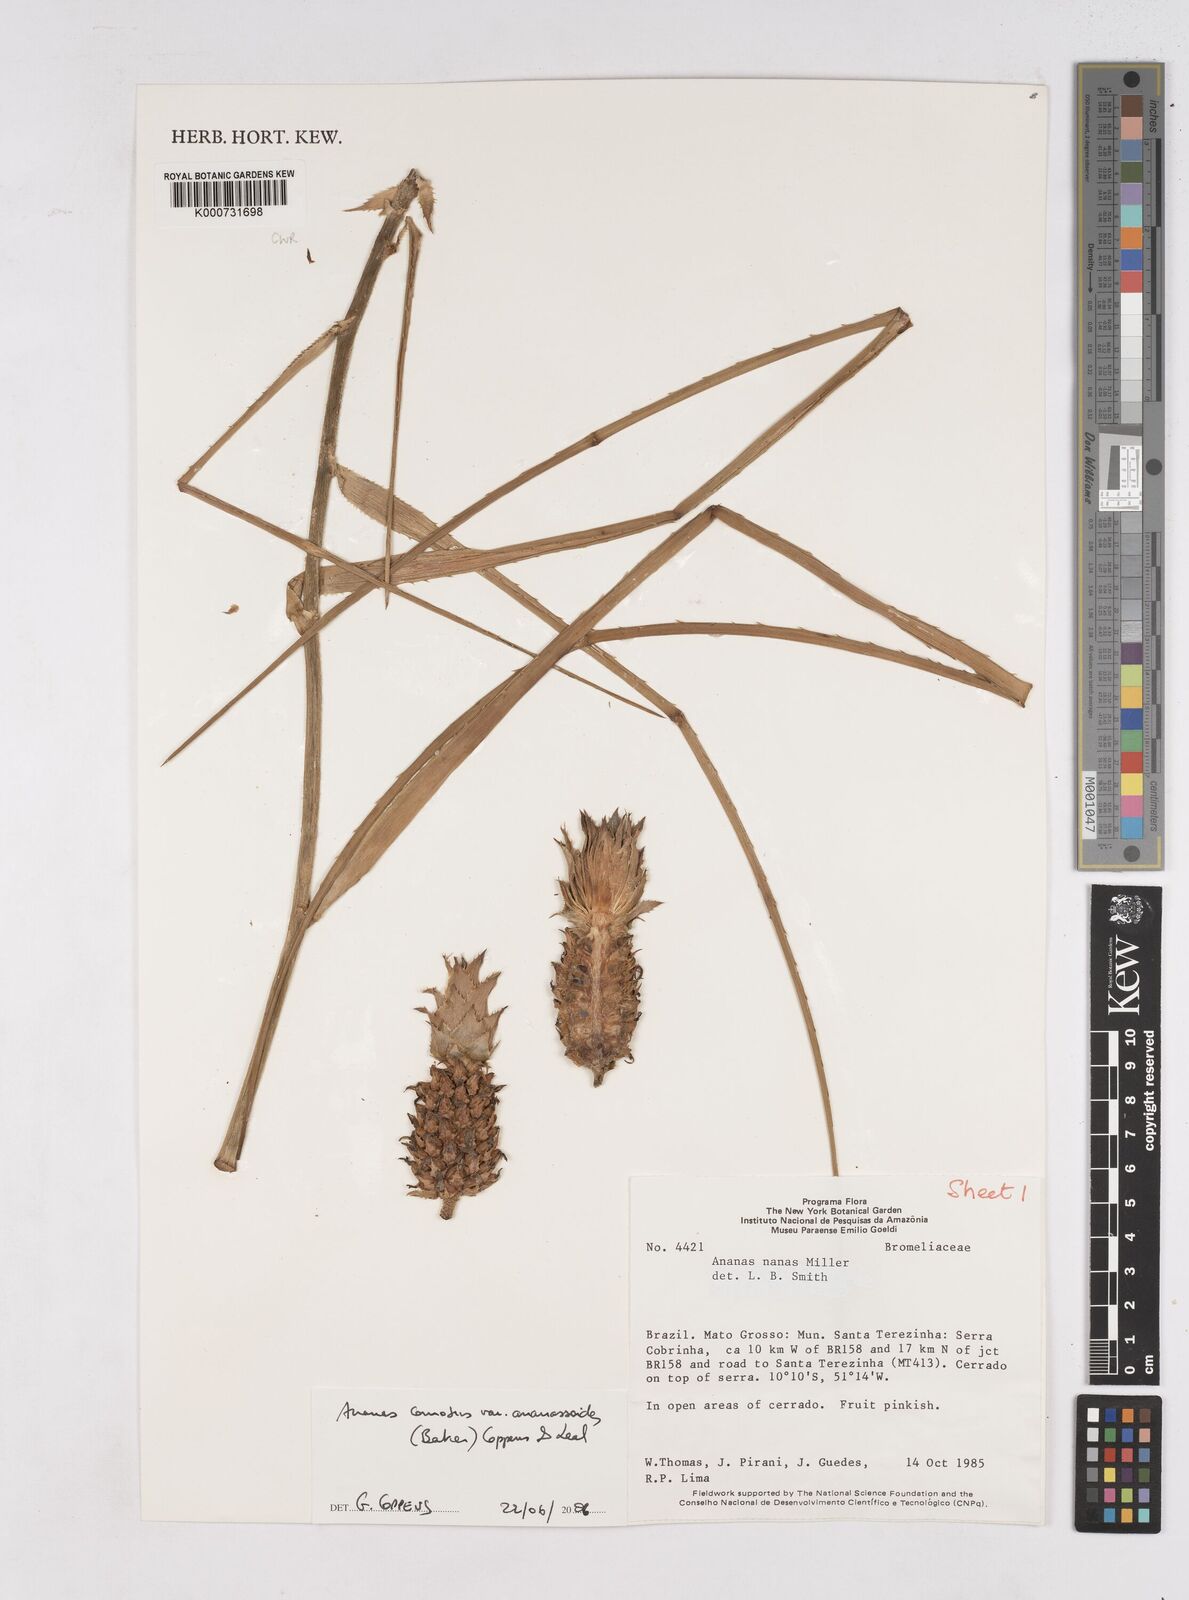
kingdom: Plantae
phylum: Tracheophyta
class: Liliopsida
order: Poales
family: Bromeliaceae
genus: Ananas
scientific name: Ananas comosus
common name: Pineapple
